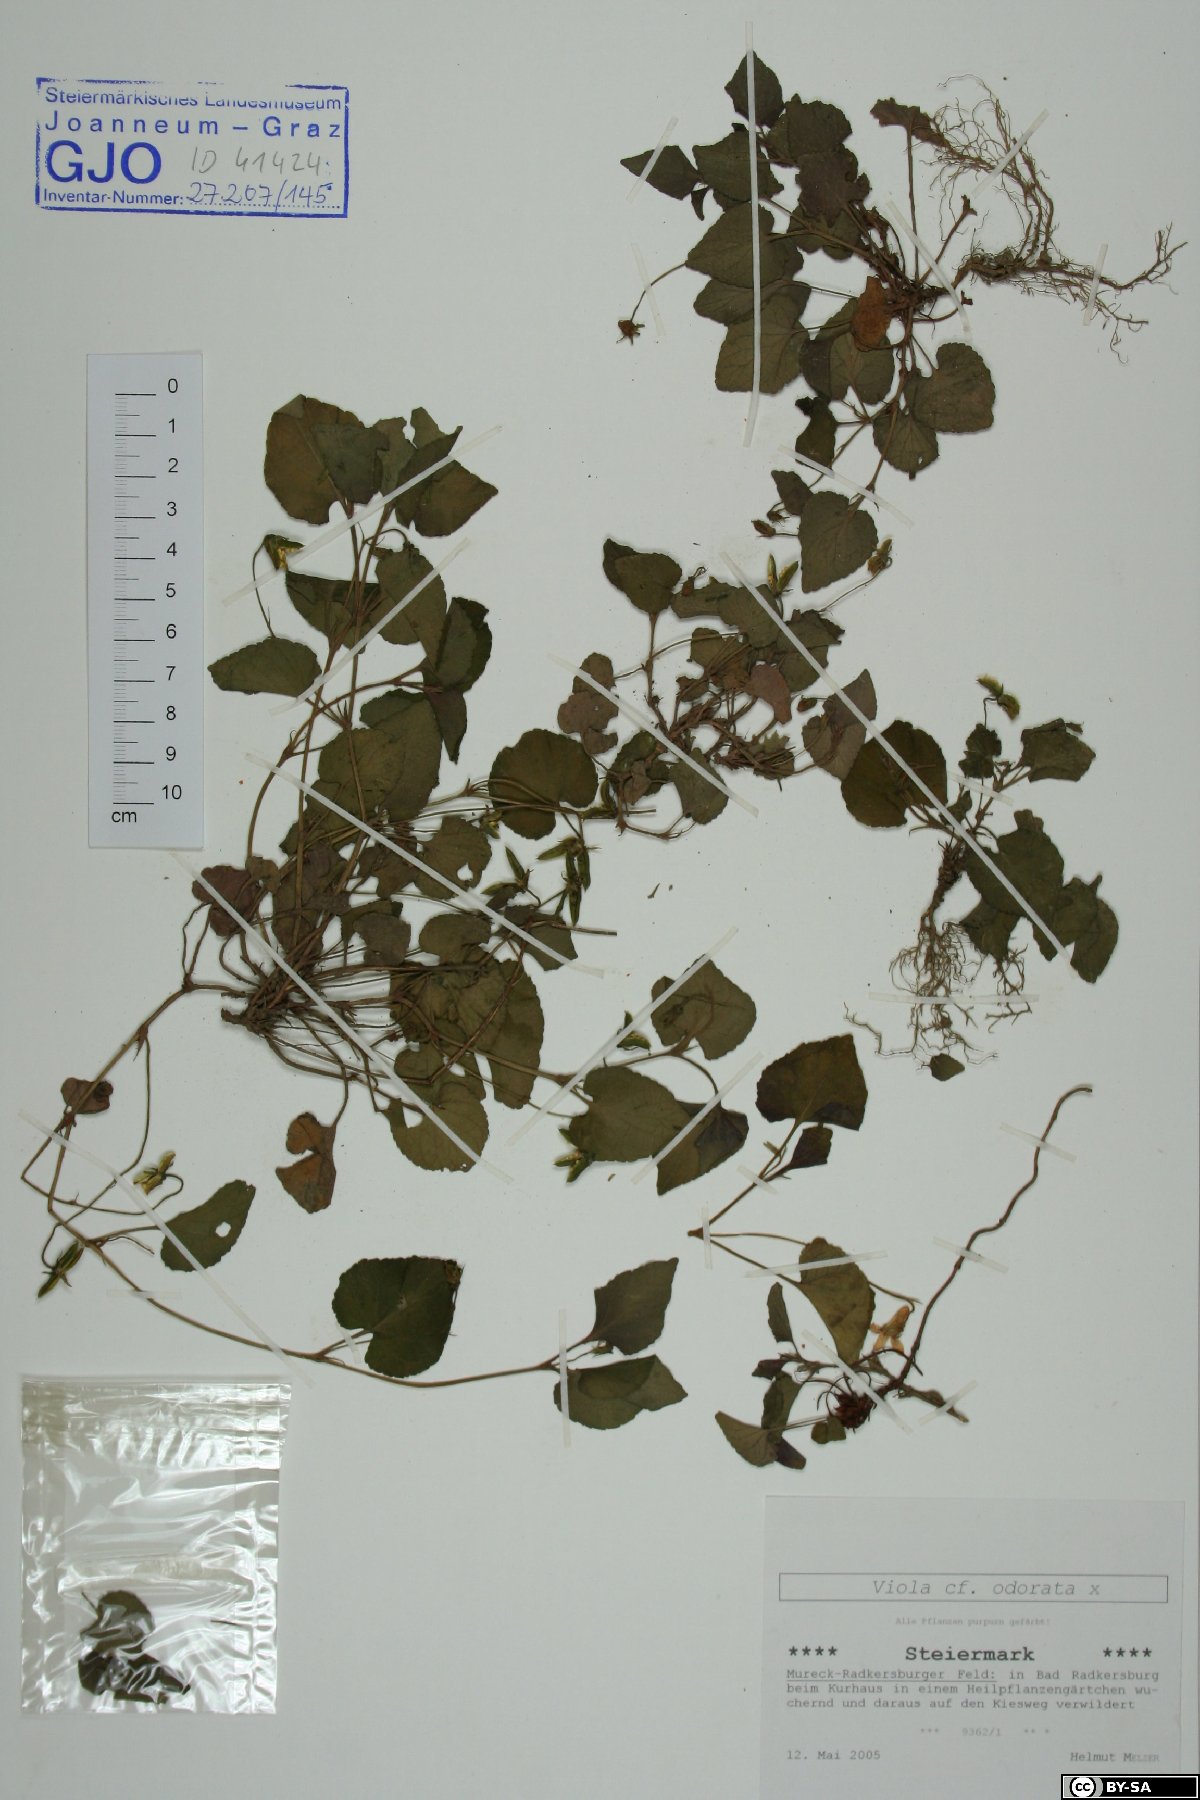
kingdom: Plantae
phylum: Tracheophyta
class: Magnoliopsida
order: Malpighiales
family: Violaceae
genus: Viola
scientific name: Viola odorata
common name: Sweet violet
